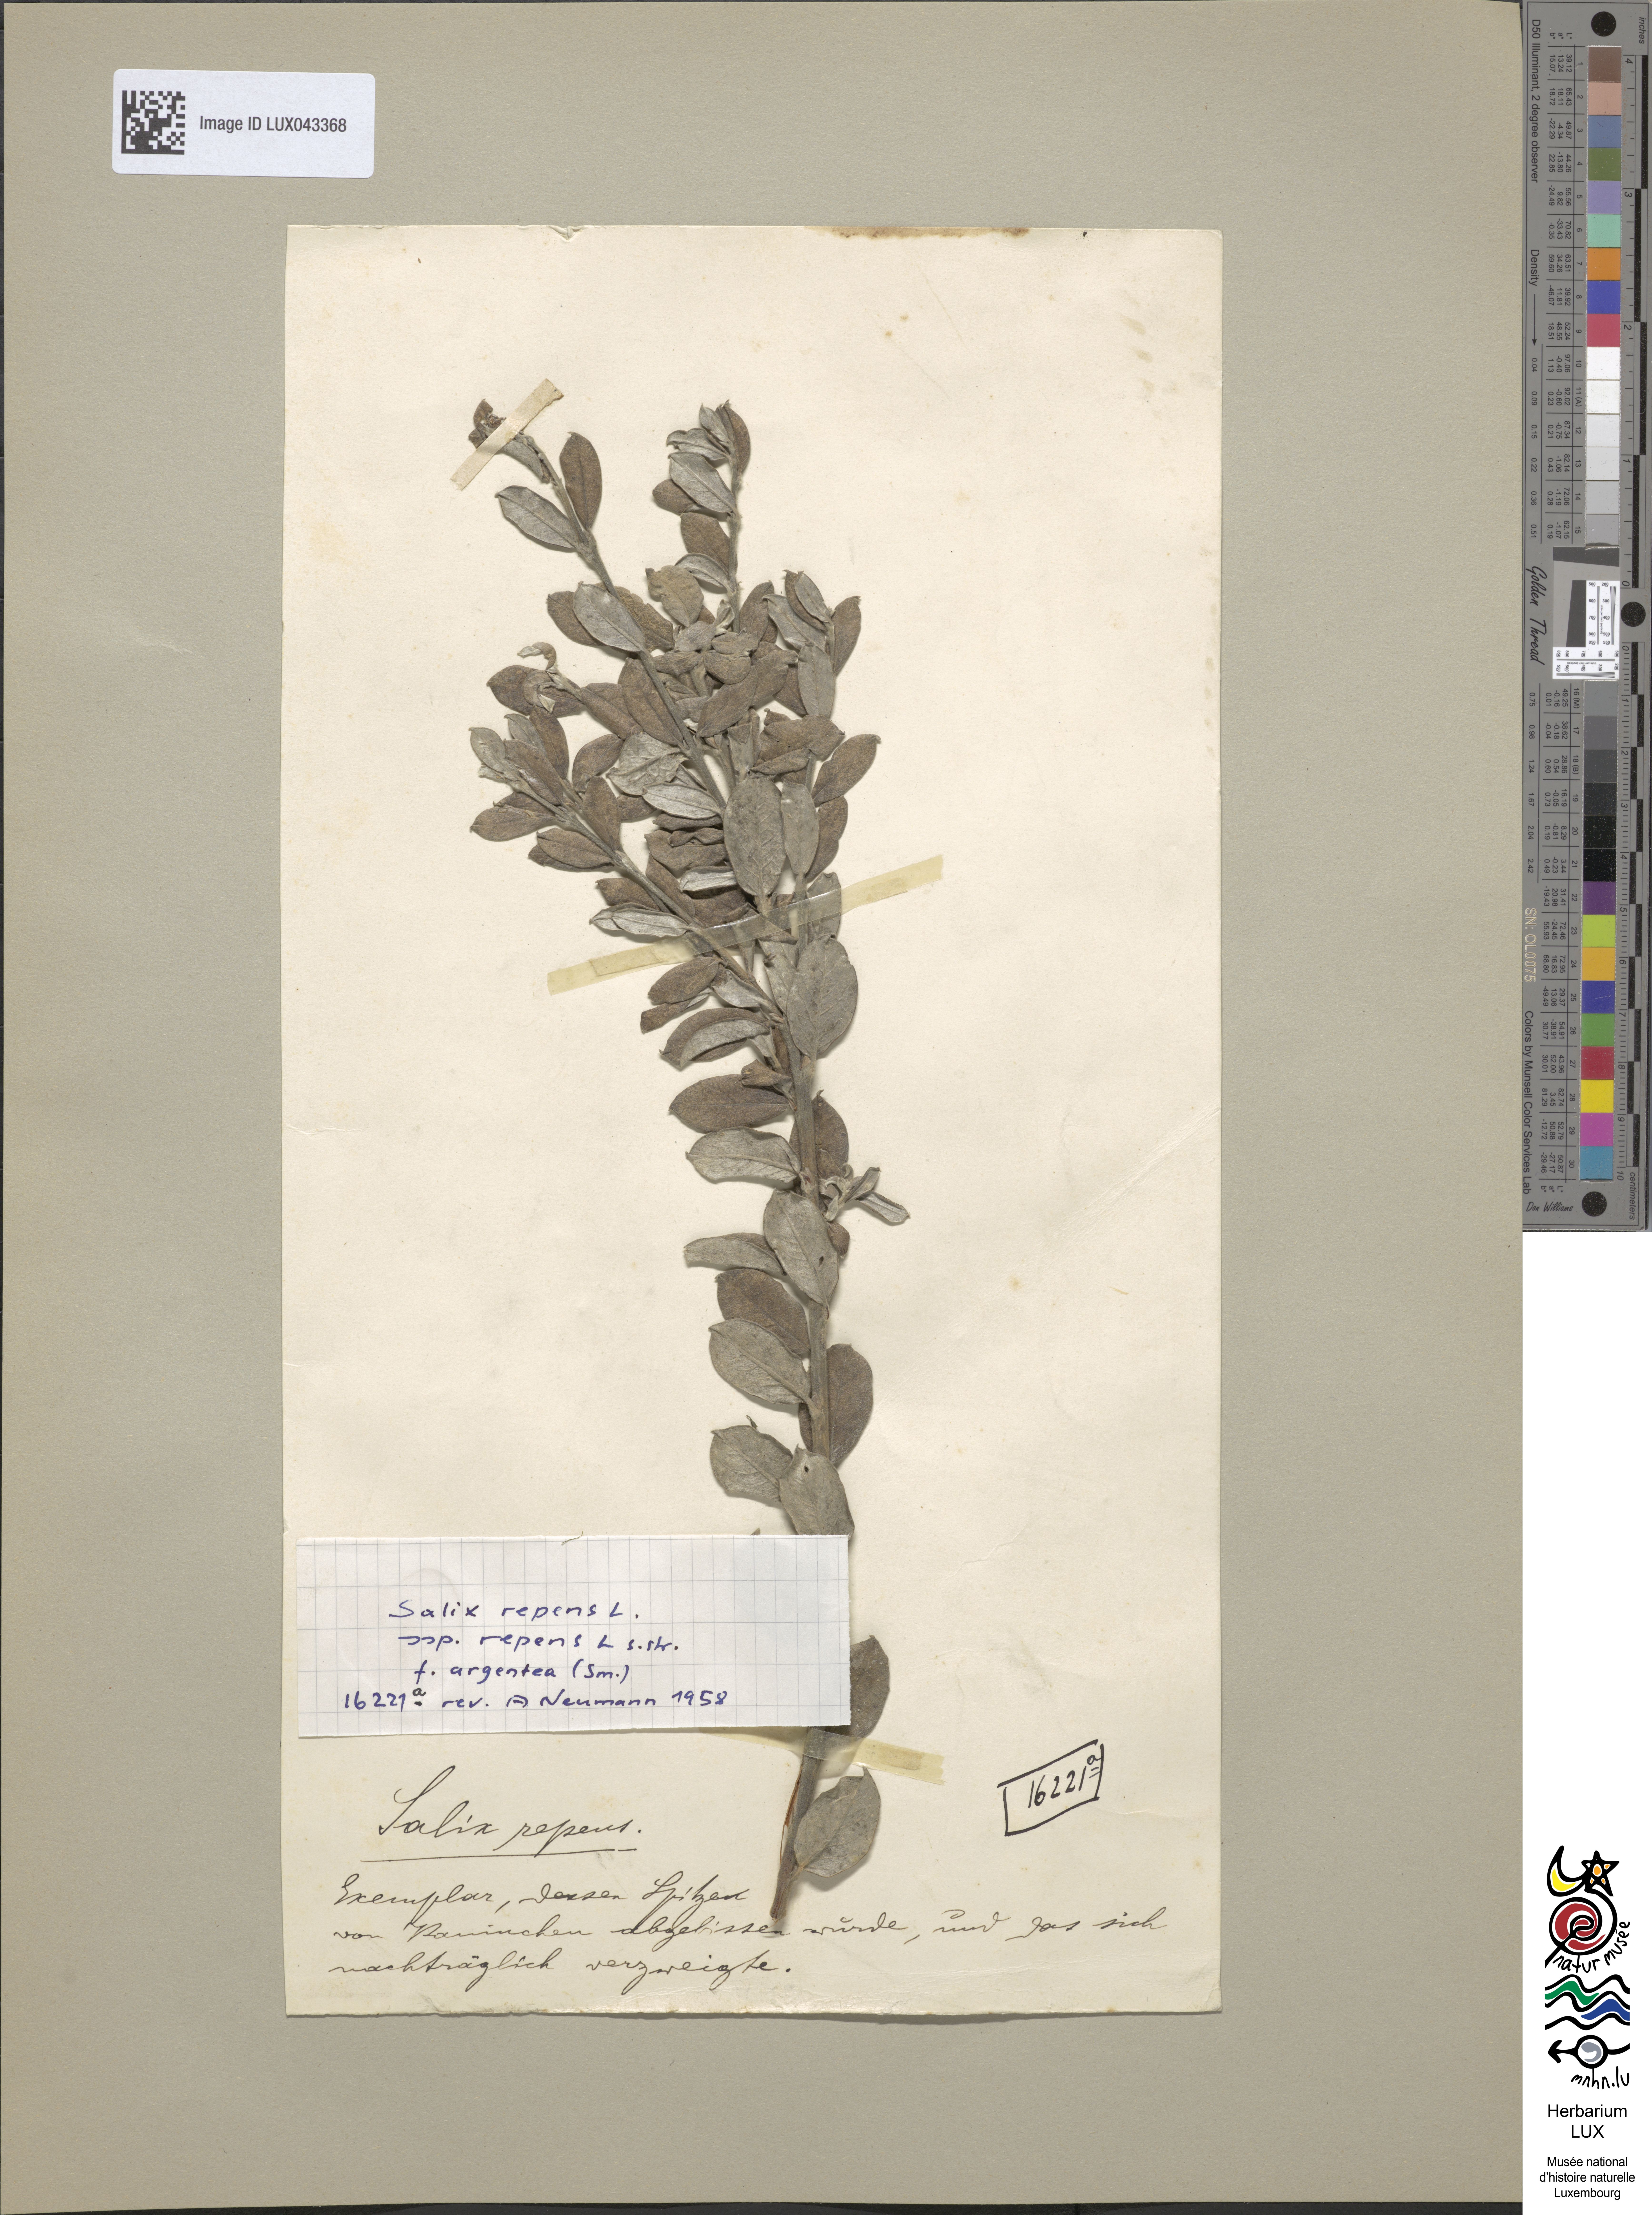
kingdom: Plantae
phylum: Tracheophyta
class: Magnoliopsida
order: Malpighiales
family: Salicaceae
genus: Salix
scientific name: Salix repens
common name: Creeping willow
